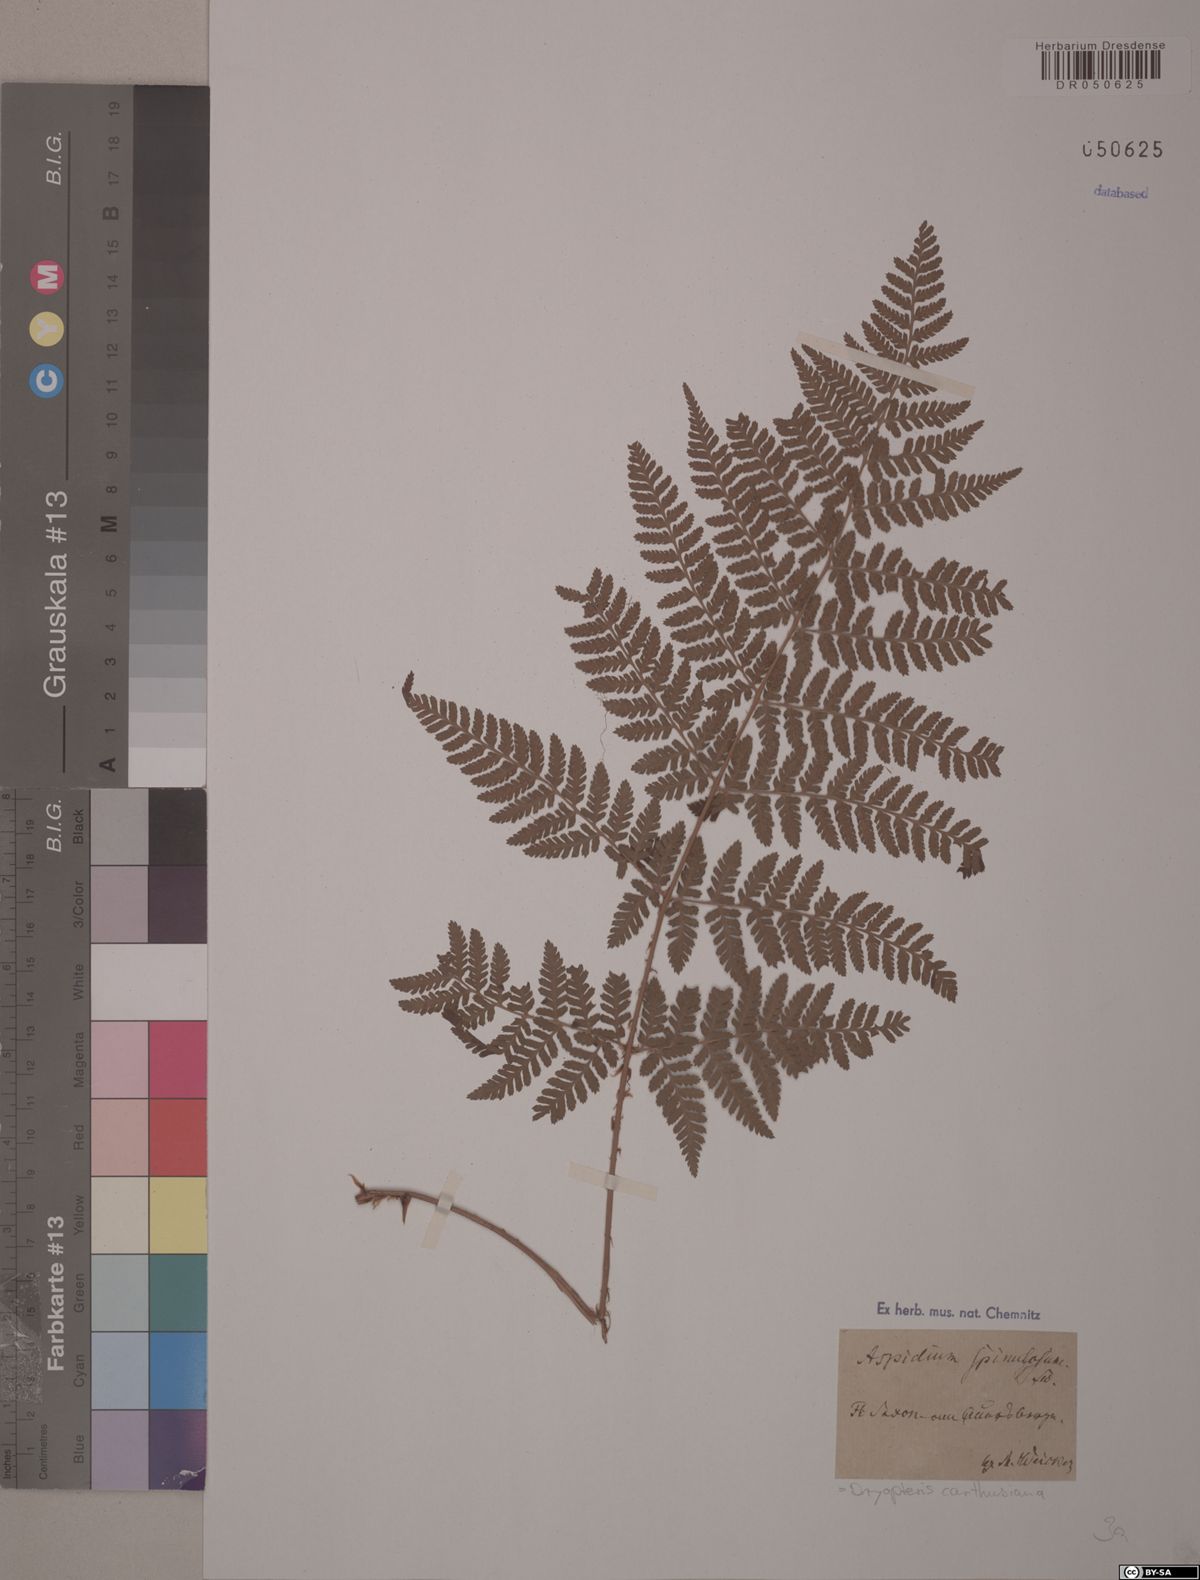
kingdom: Plantae
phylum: Tracheophyta
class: Polypodiopsida
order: Polypodiales
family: Dryopteridaceae
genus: Dryopteris
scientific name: Dryopteris carthusiana
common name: Narrow buckler-fern
